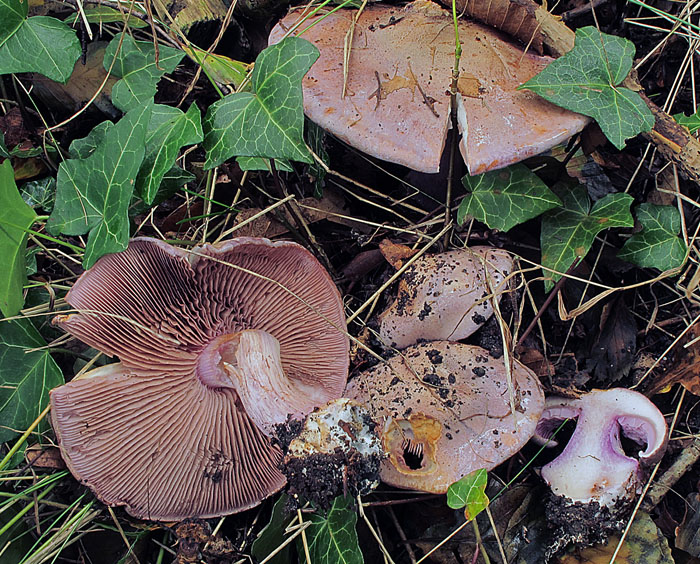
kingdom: Fungi
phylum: Basidiomycota
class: Agaricomycetes
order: Agaricales
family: Cortinariaceae
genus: Calonarius
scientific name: Calonarius violaceipes
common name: stedmoder-slørhat
